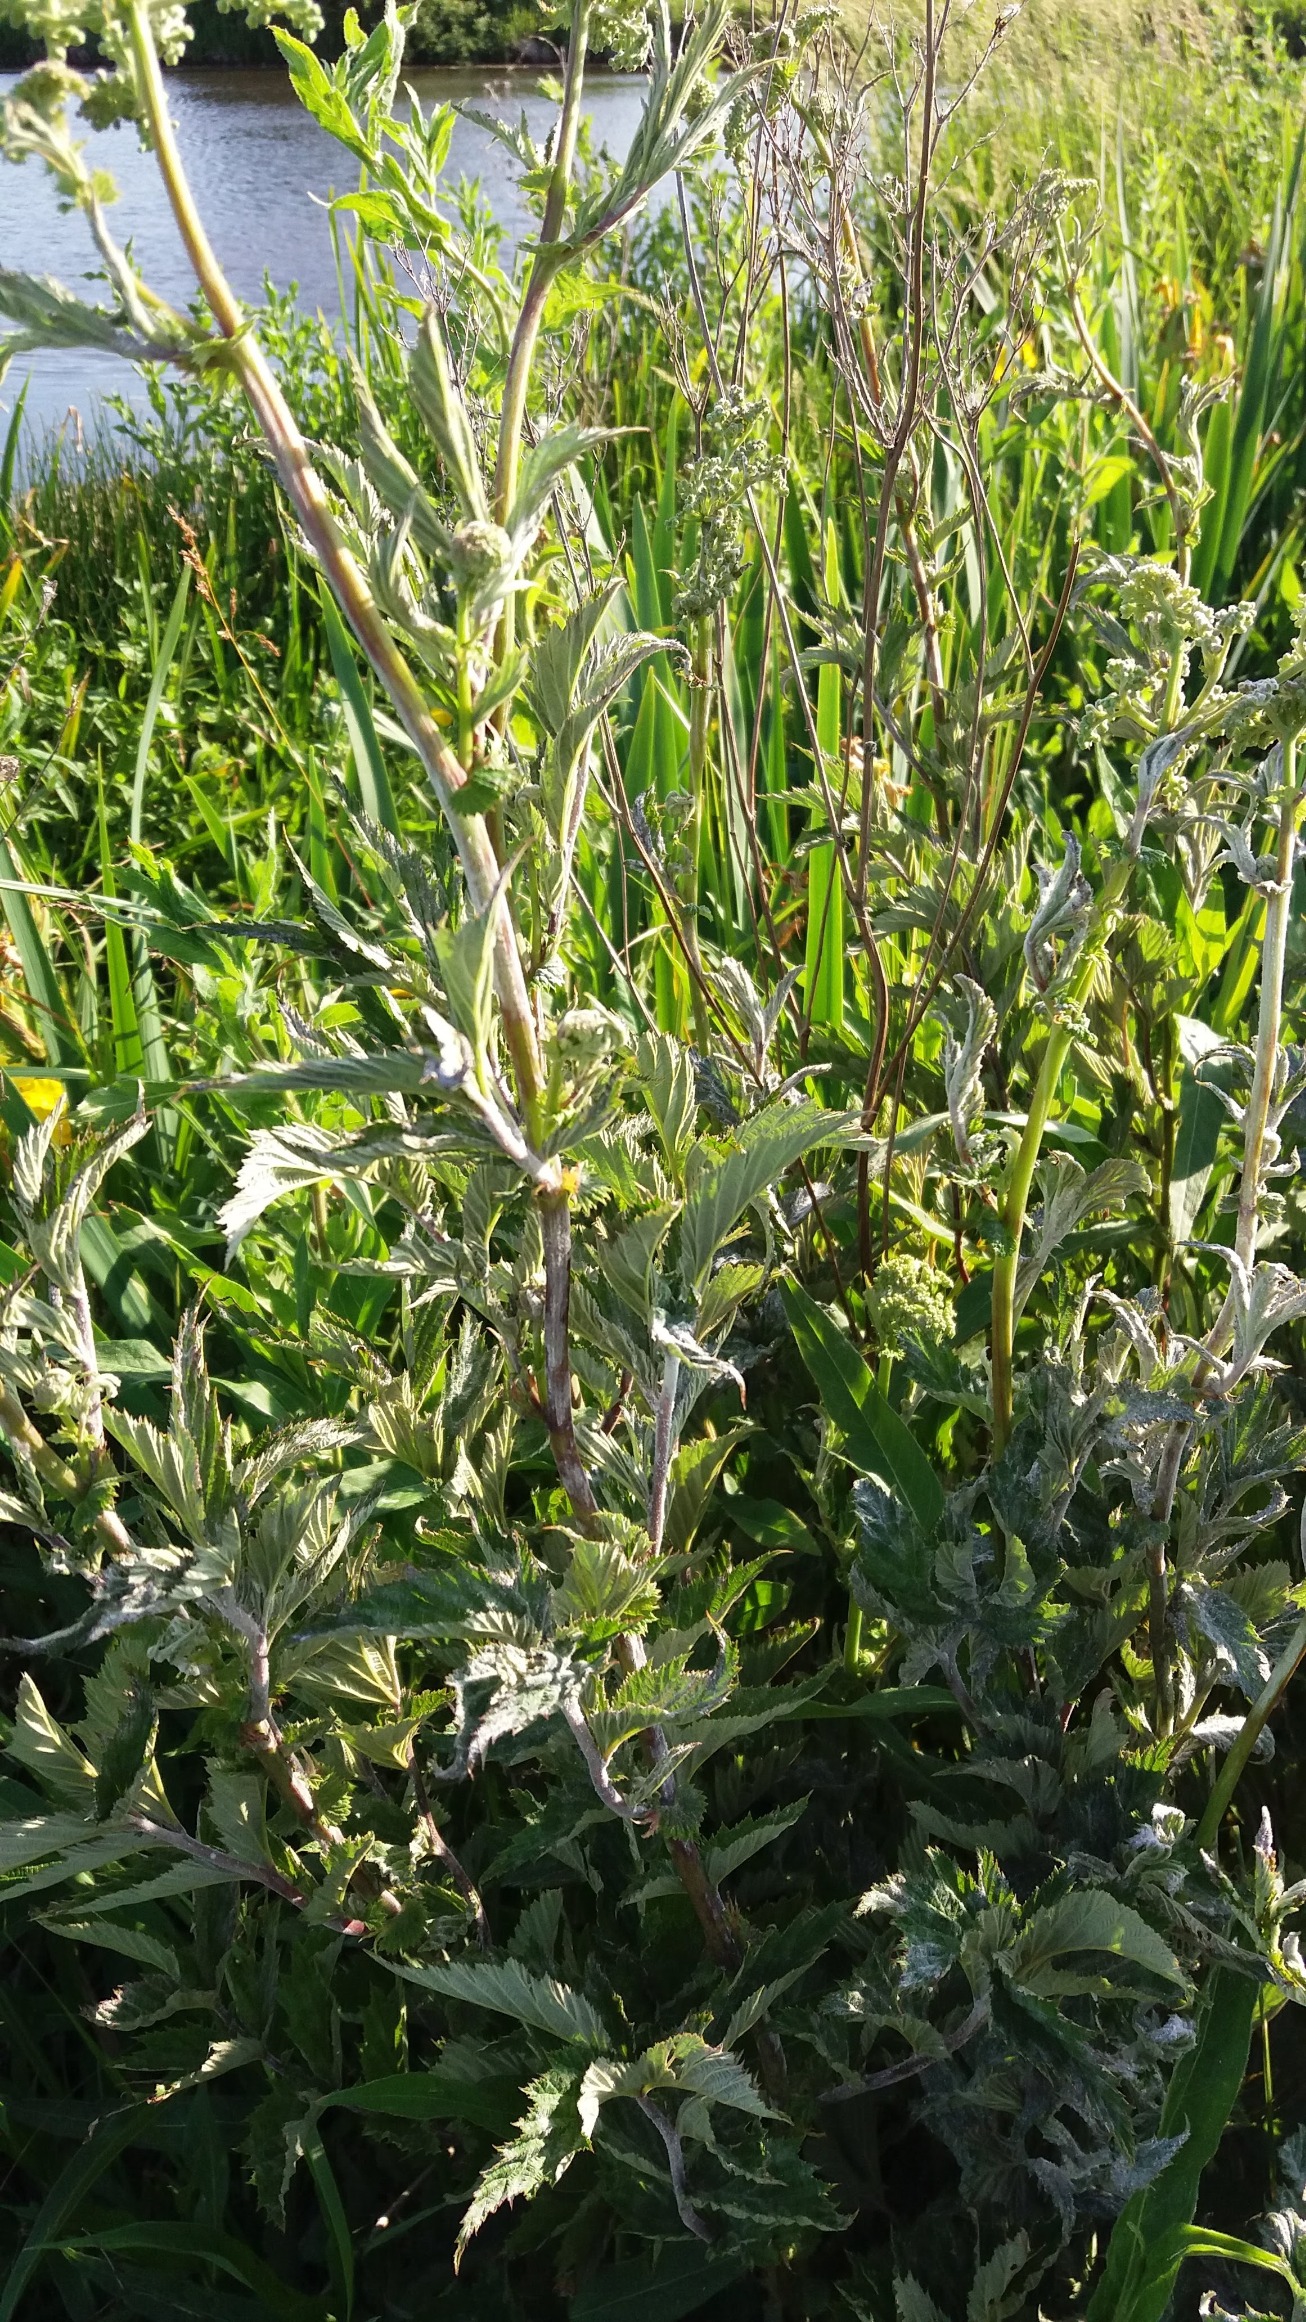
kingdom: Plantae
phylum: Tracheophyta
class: Magnoliopsida
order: Rosales
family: Rosaceae
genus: Filipendula
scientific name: Filipendula ulmaria
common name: Almindelig mjødurt
